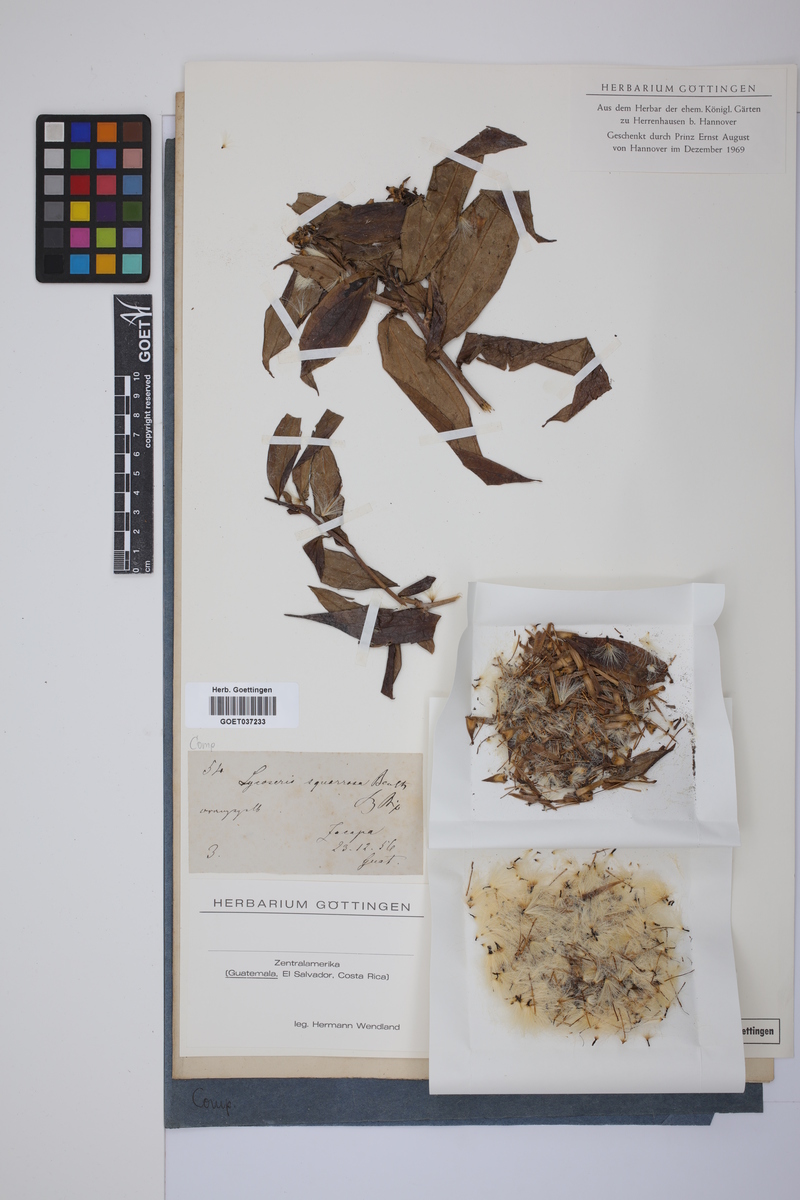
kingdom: Plantae
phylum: Tracheophyta
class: Magnoliopsida
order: Asterales
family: Asteraceae
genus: Lycoseris
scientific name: Lycoseris crocata
